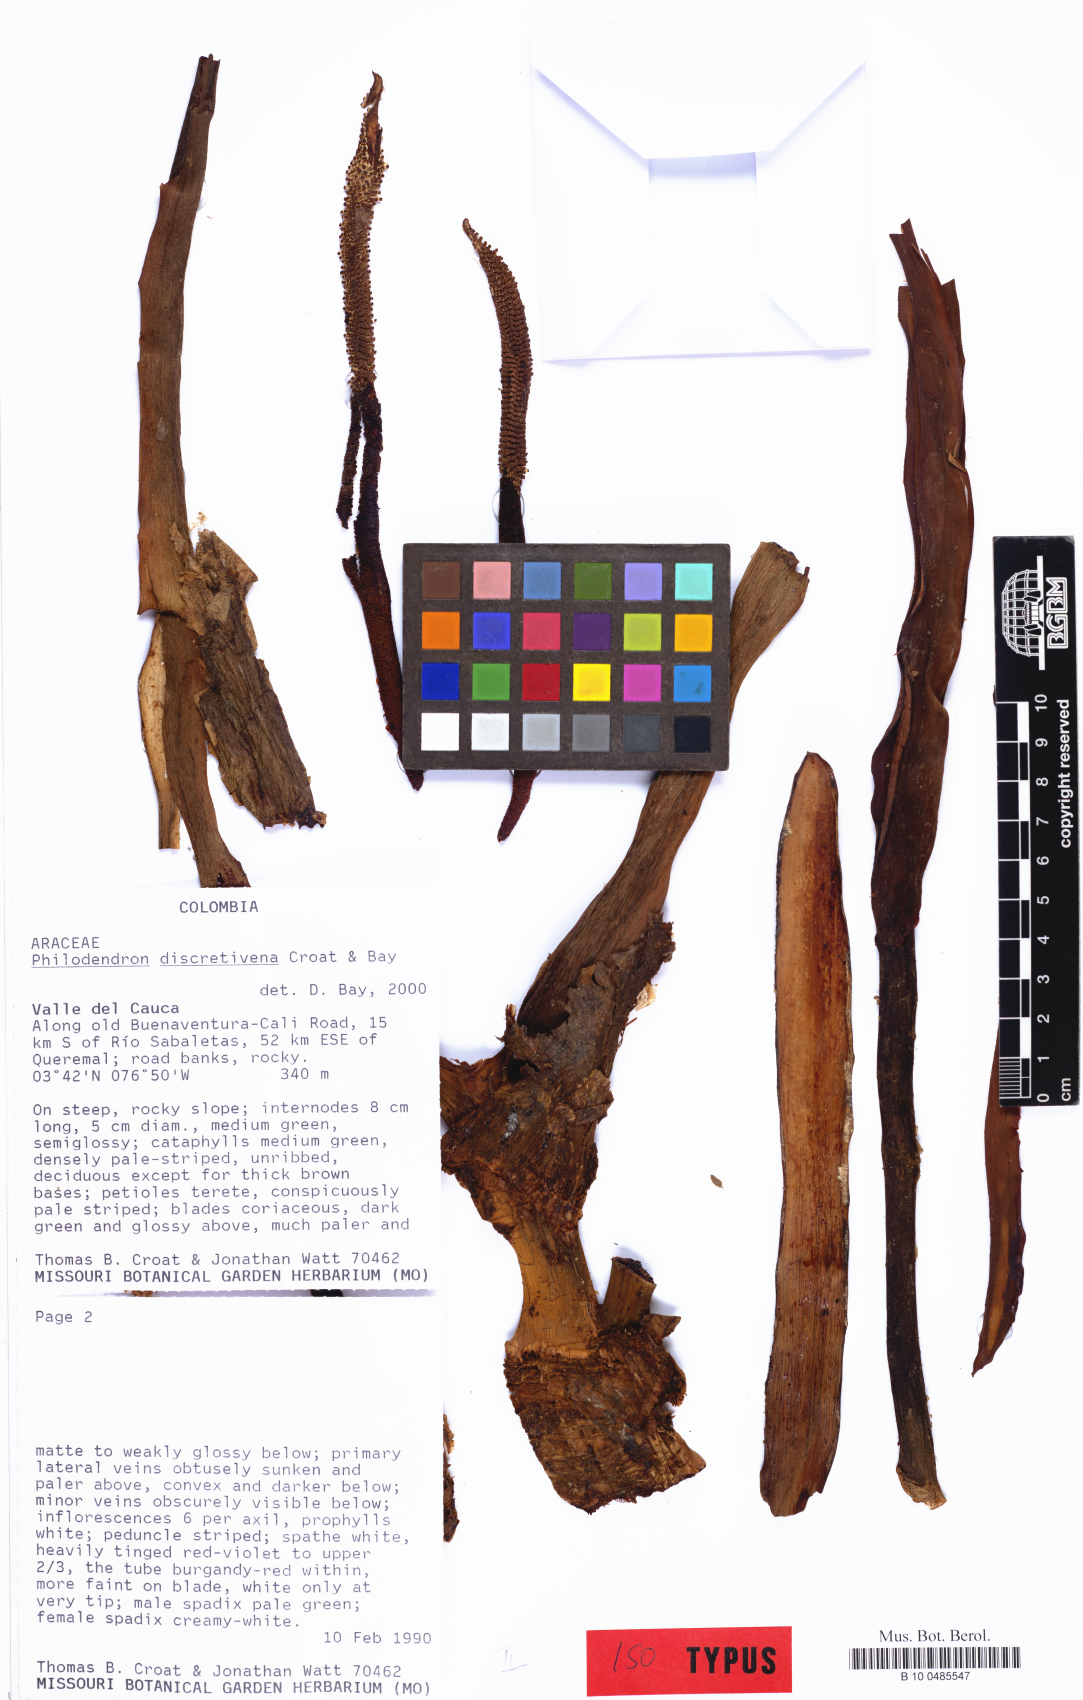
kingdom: Plantae
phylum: Tracheophyta
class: Liliopsida
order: Alismatales
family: Araceae
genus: Philodendron
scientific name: Philodendron discretivenium
